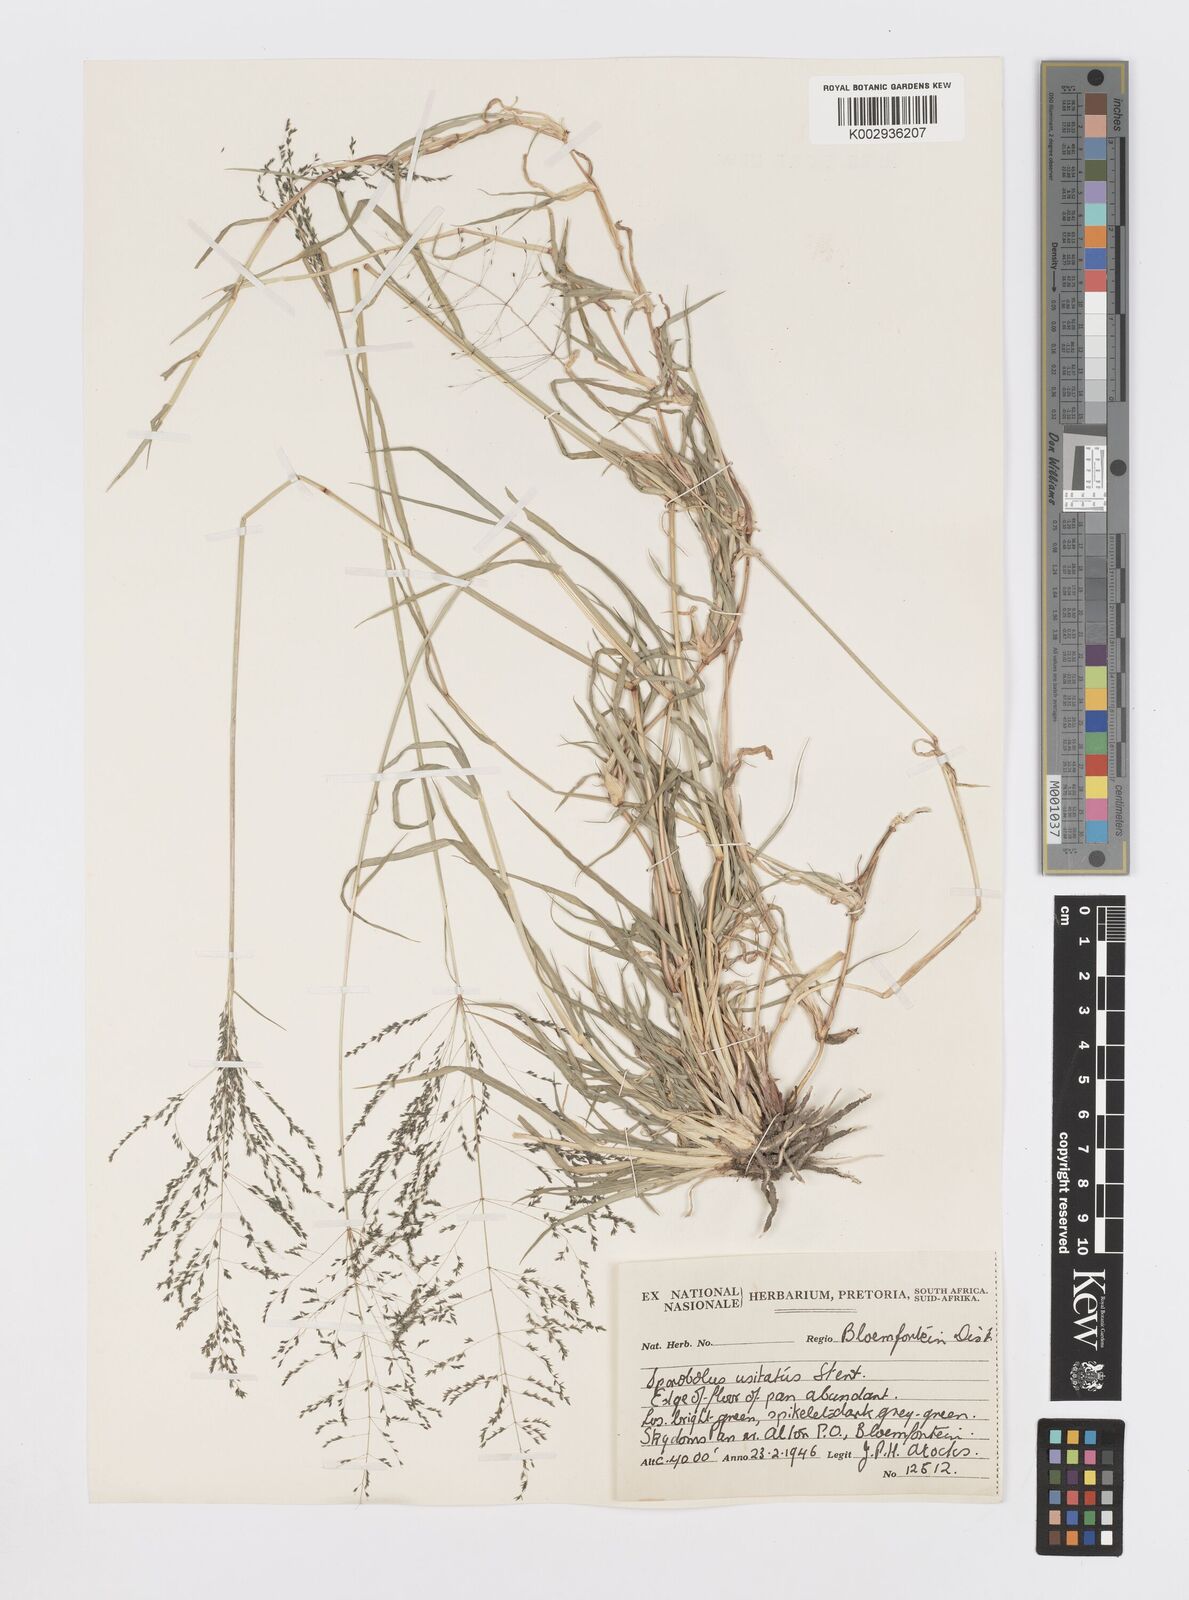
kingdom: Plantae
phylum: Tracheophyta
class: Liliopsida
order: Poales
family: Poaceae
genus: Sporobolus
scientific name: Sporobolus ioclados
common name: Pan dropseed
